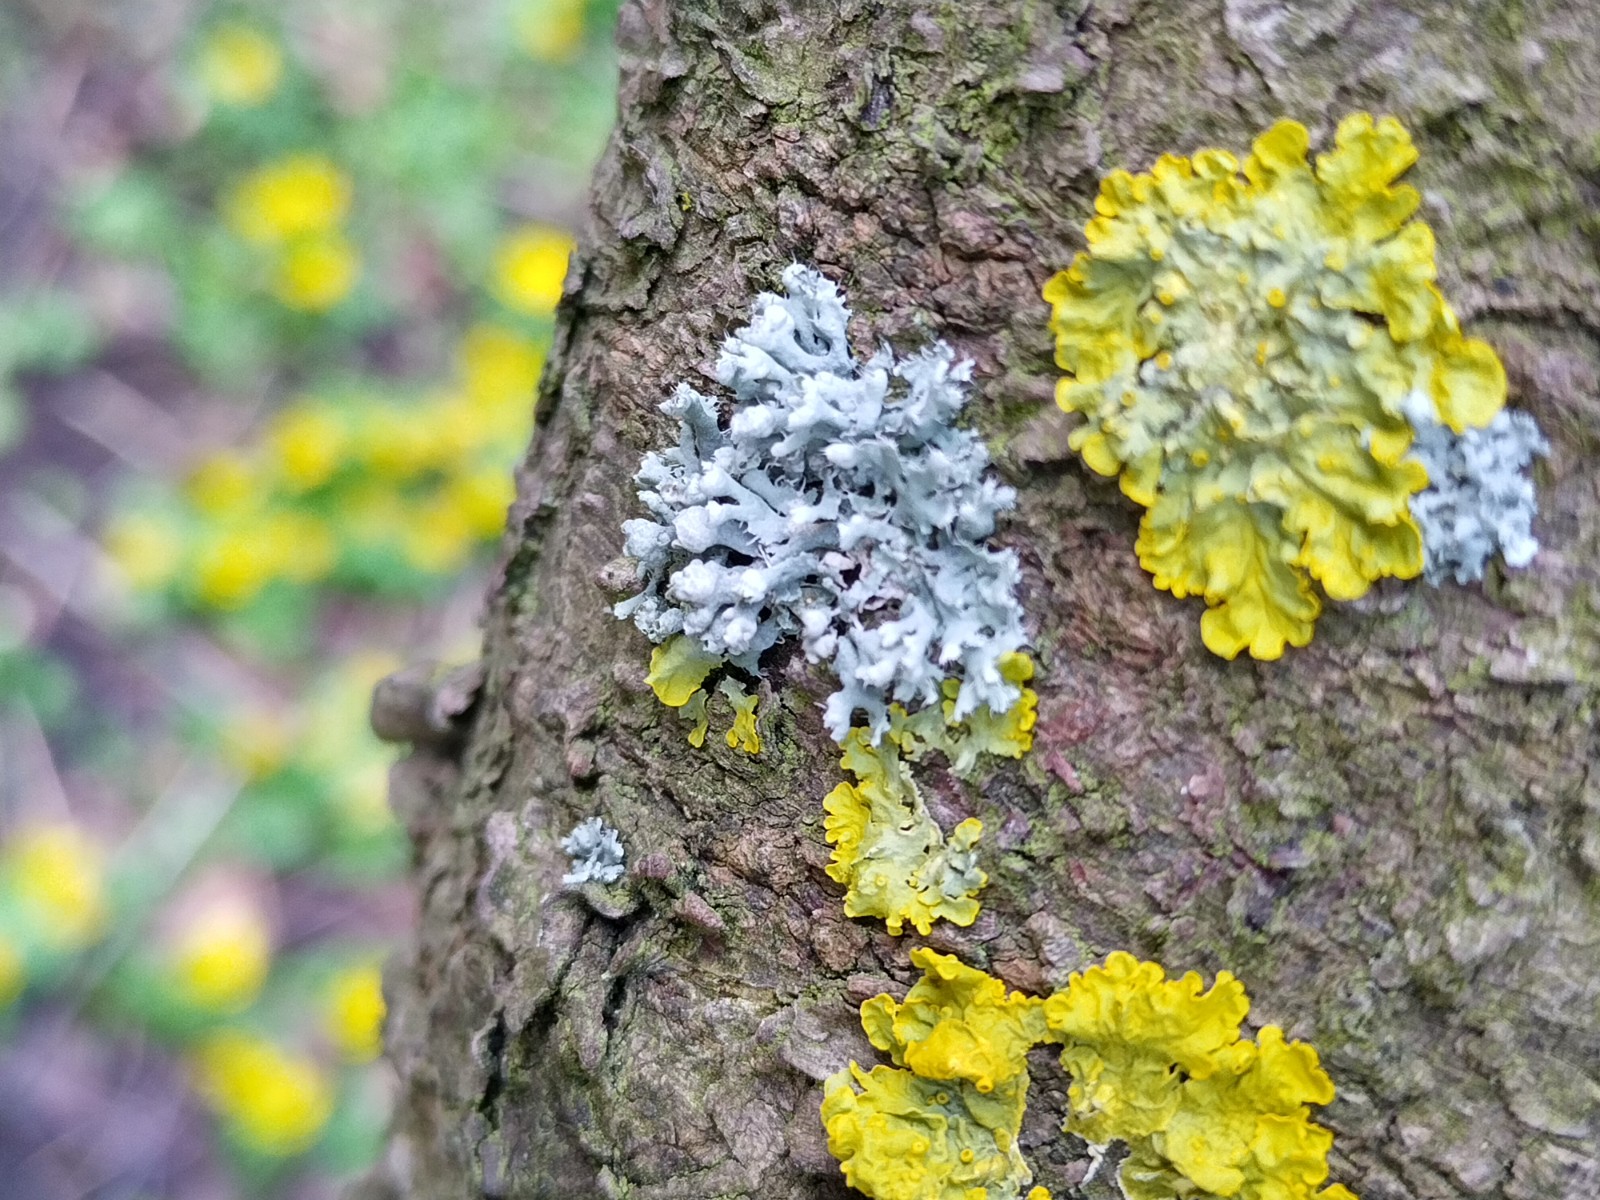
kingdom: Fungi
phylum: Ascomycota
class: Lecanoromycetes
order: Caliciales
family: Physciaceae
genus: Physcia
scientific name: Physcia tenella
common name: spæd rosetlav
